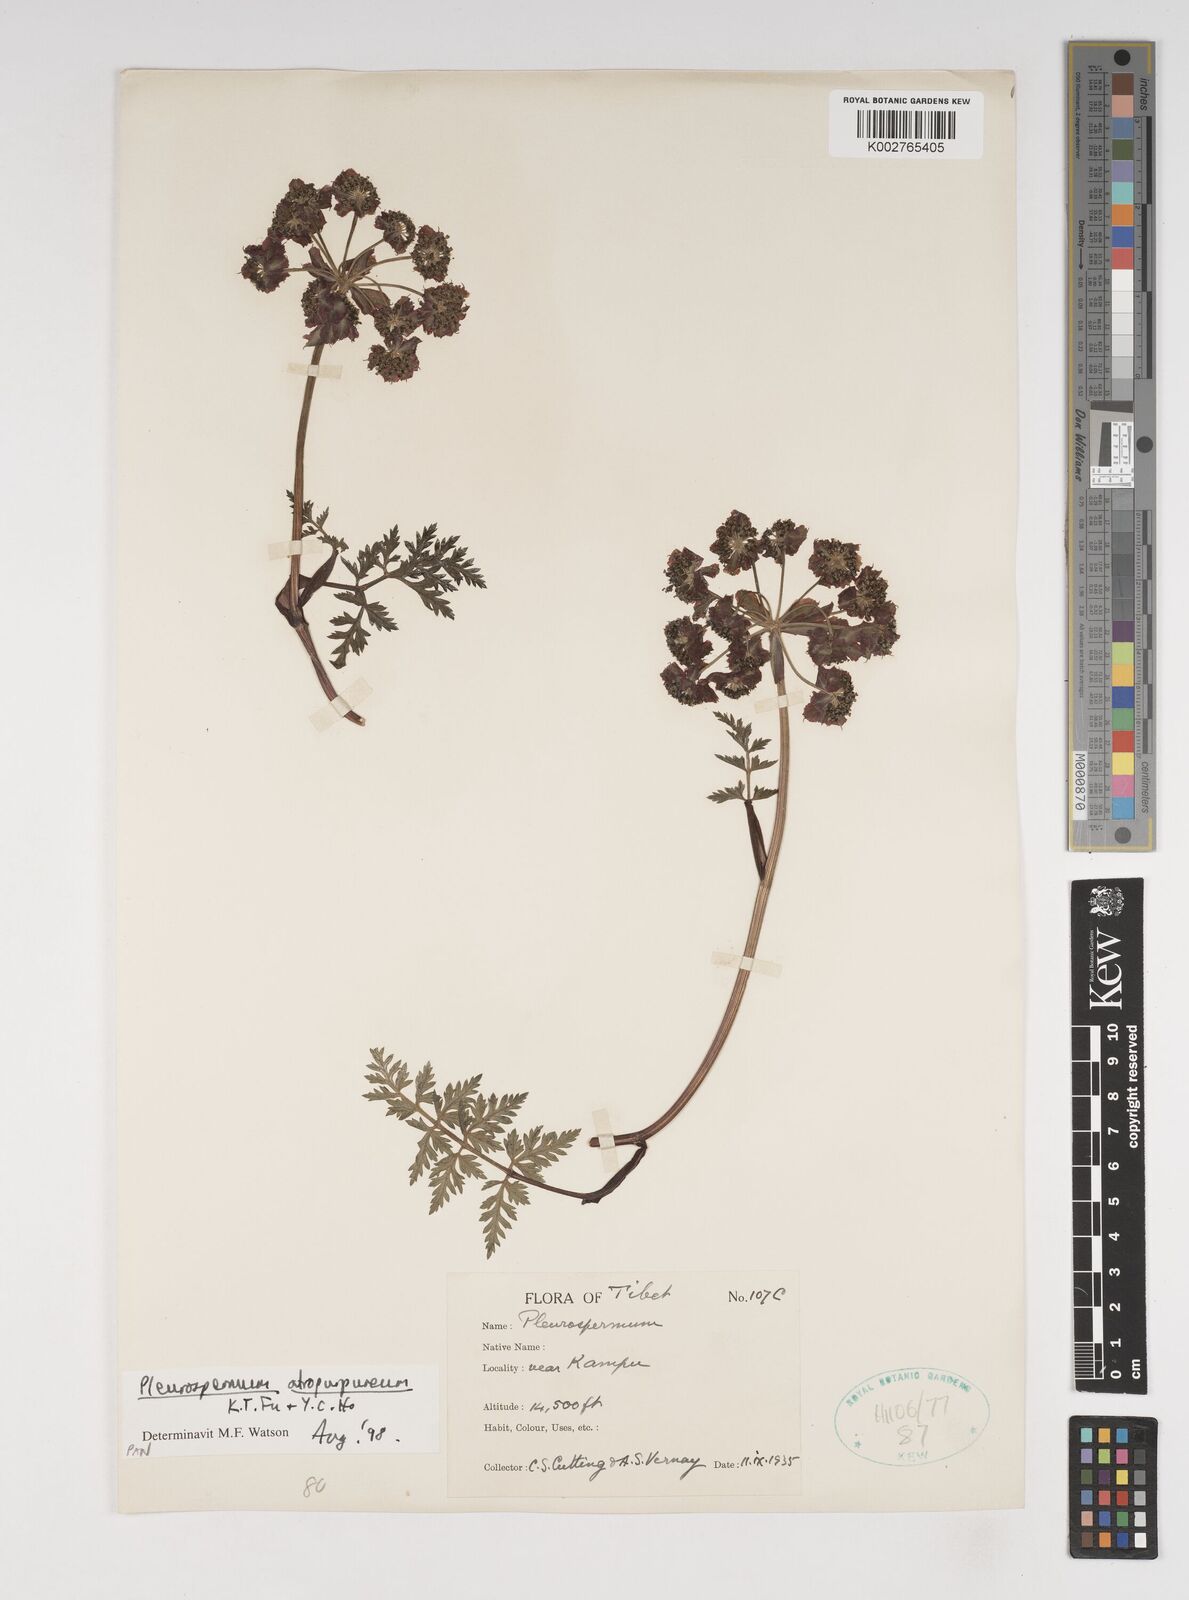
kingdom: Plantae
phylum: Tracheophyta
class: Magnoliopsida
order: Apiales
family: Apiaceae
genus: Hymenidium
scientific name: Hymenidium apiolens
